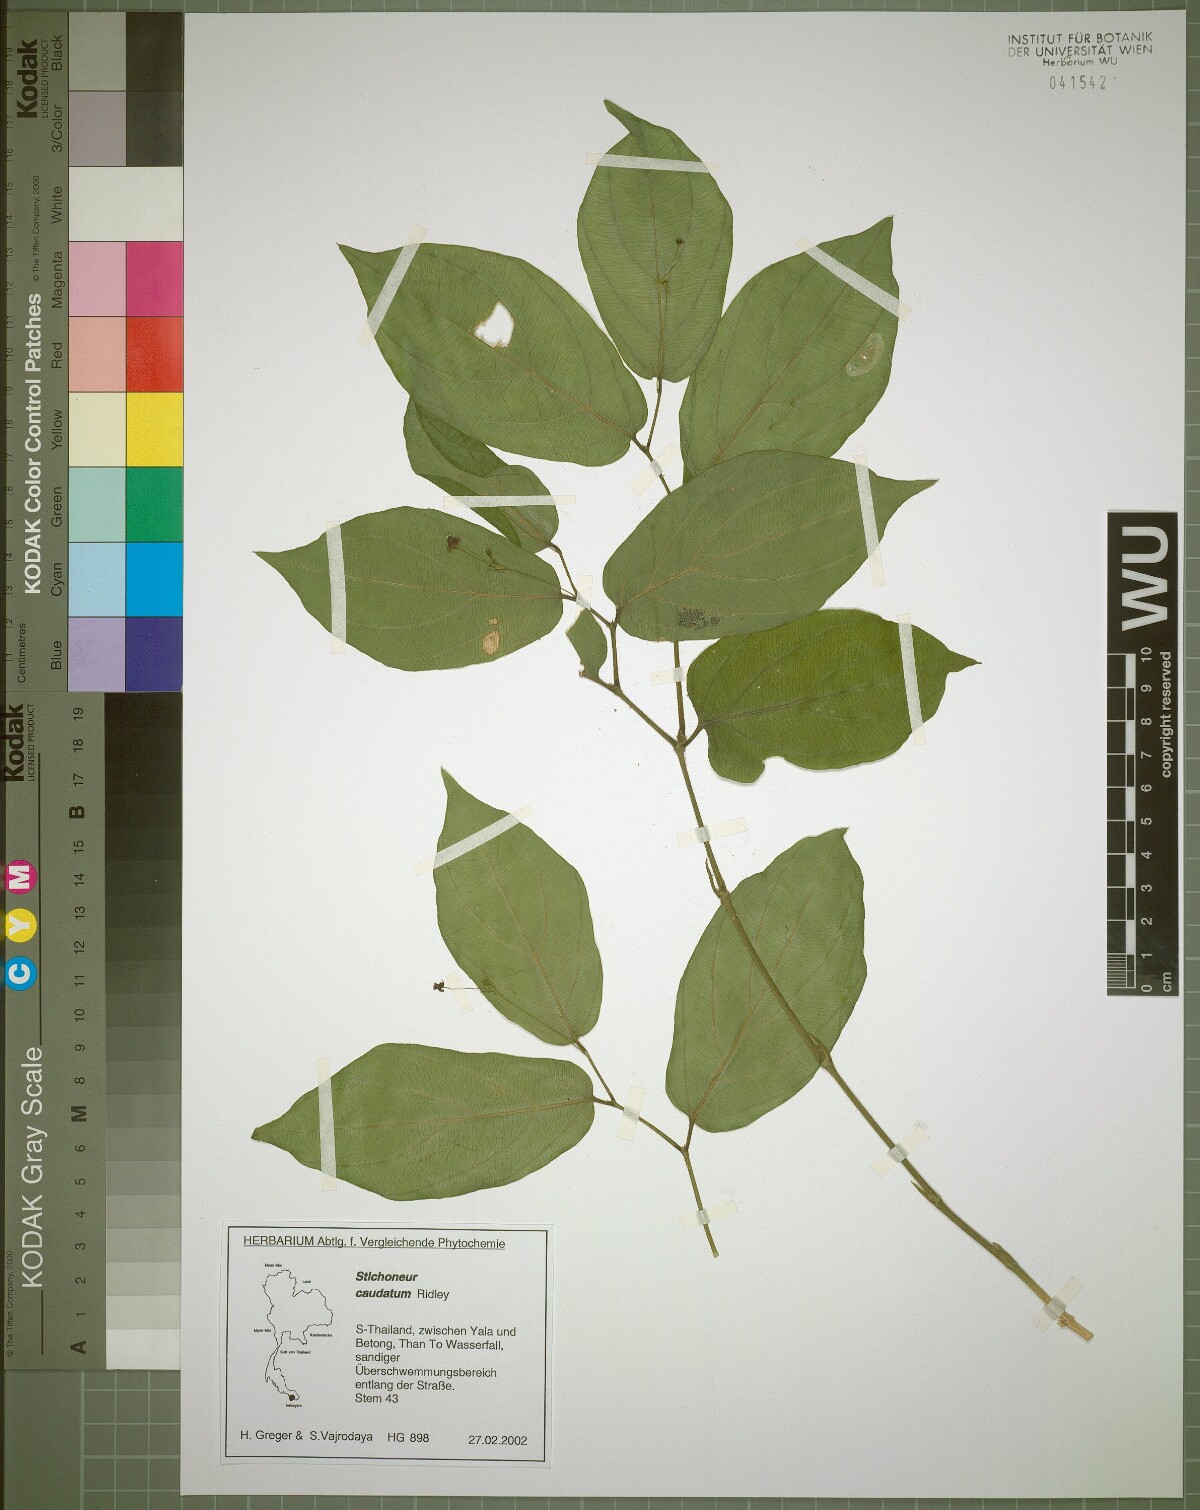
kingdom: Plantae
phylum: Tracheophyta
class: Liliopsida
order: Pandanales
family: Stemonaceae
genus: Stichoneuron
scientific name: Stichoneuron caudatum
